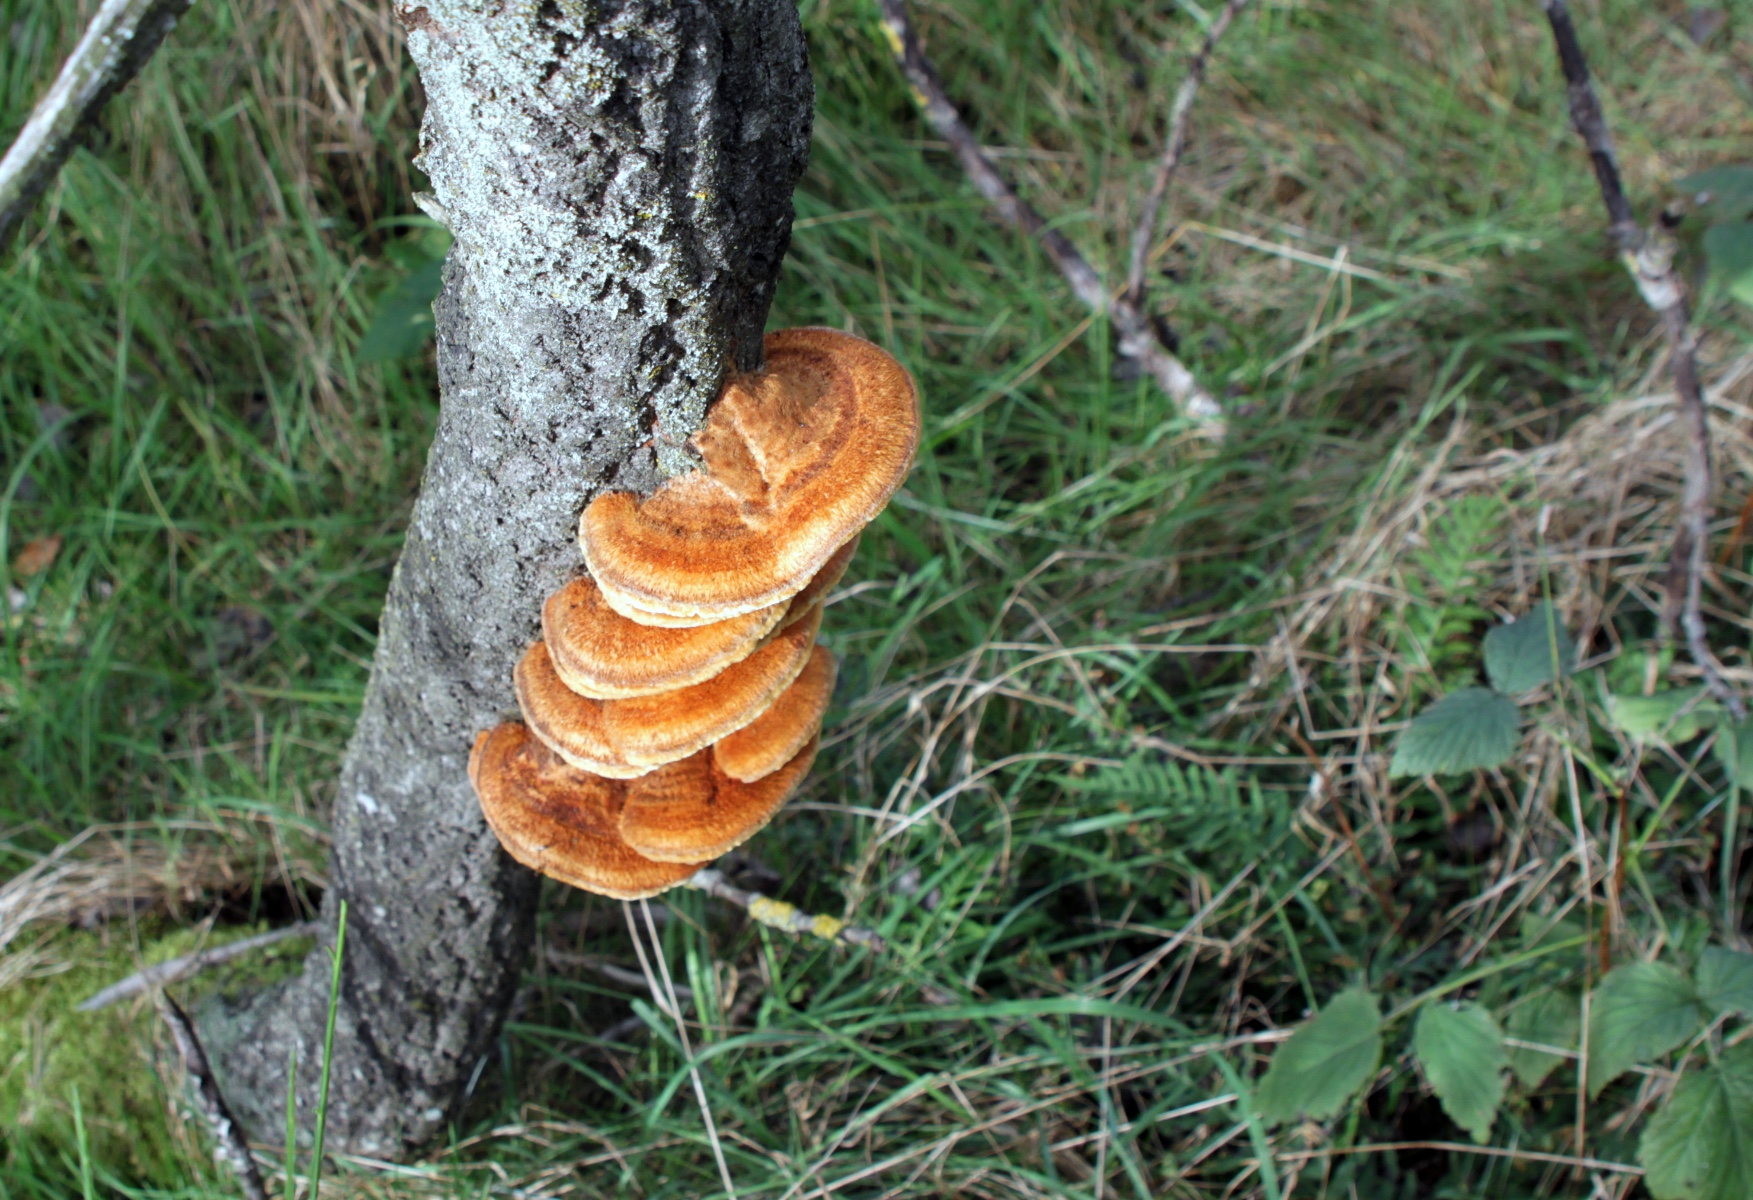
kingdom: Fungi
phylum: Basidiomycota
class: Agaricomycetes
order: Hymenochaetales
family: Hymenochaetaceae
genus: Inocutis
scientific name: Inocutis rheades
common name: ræve-spejlporesvamp
